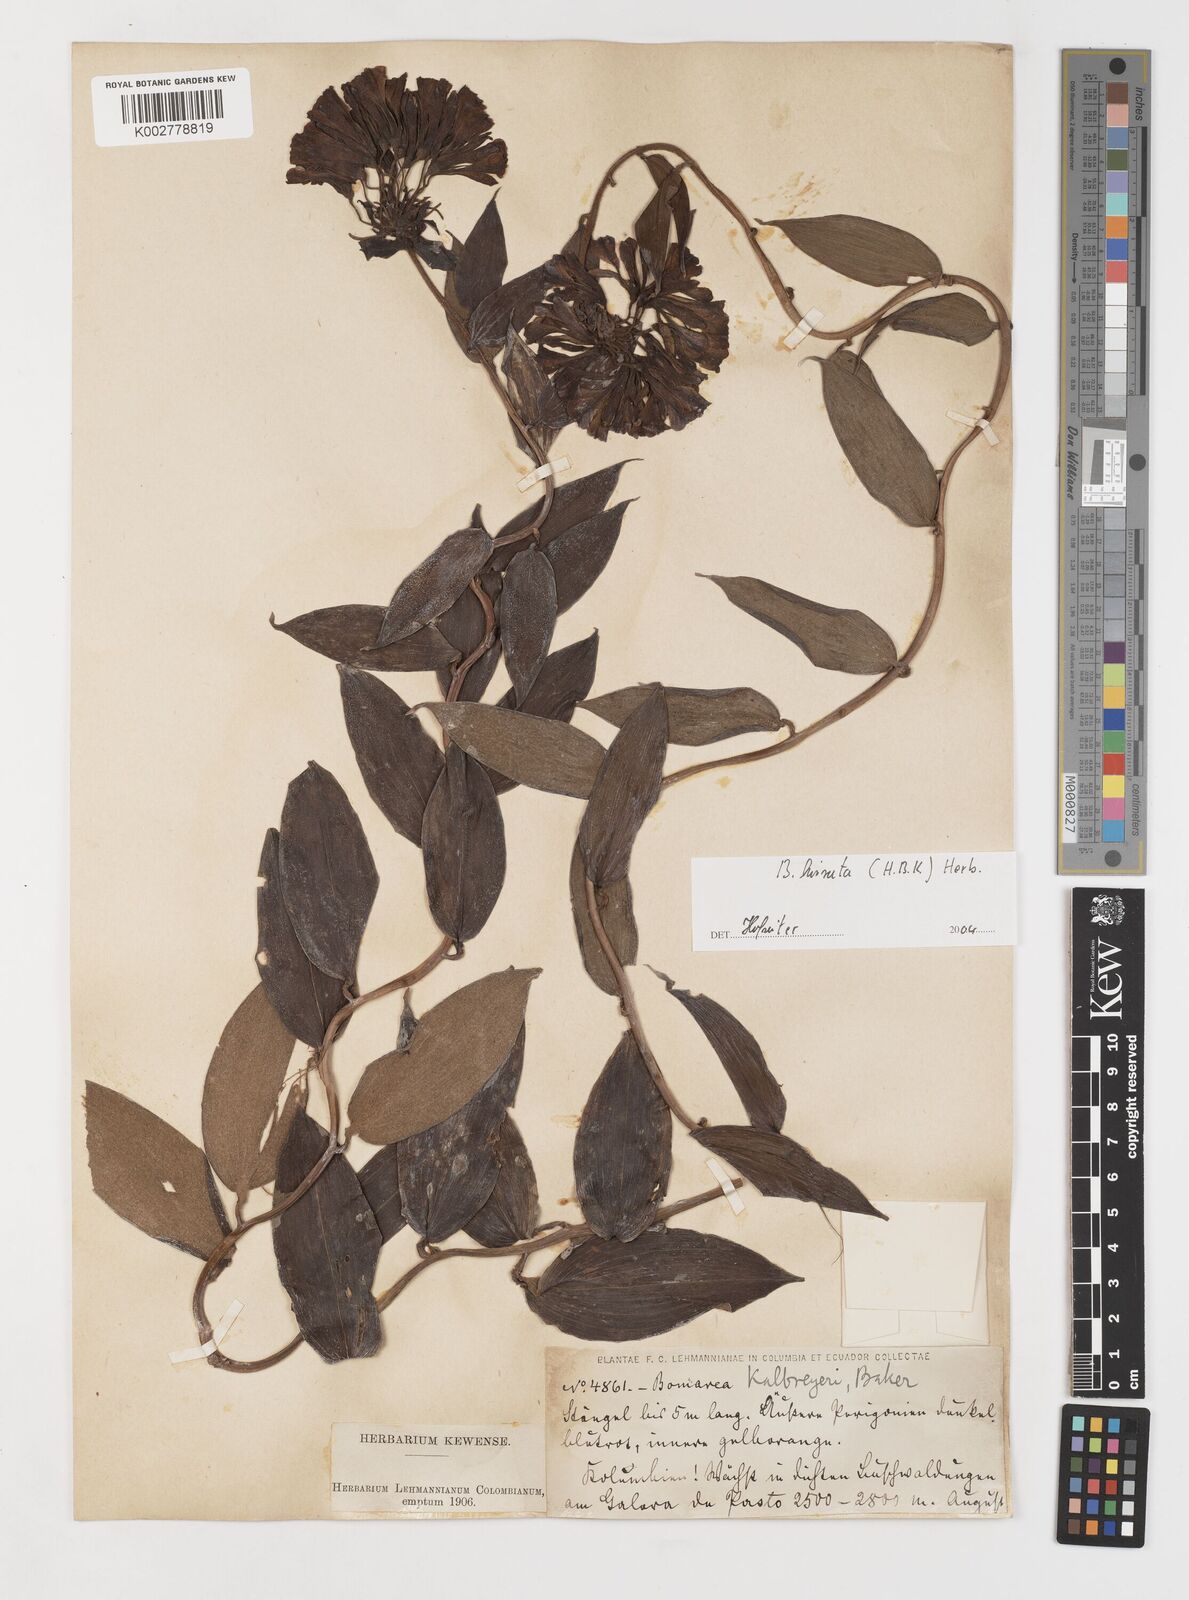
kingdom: Plantae
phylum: Tracheophyta
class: Liliopsida
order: Liliales
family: Alstroemeriaceae
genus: Bomarea
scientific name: Bomarea hirsuta
